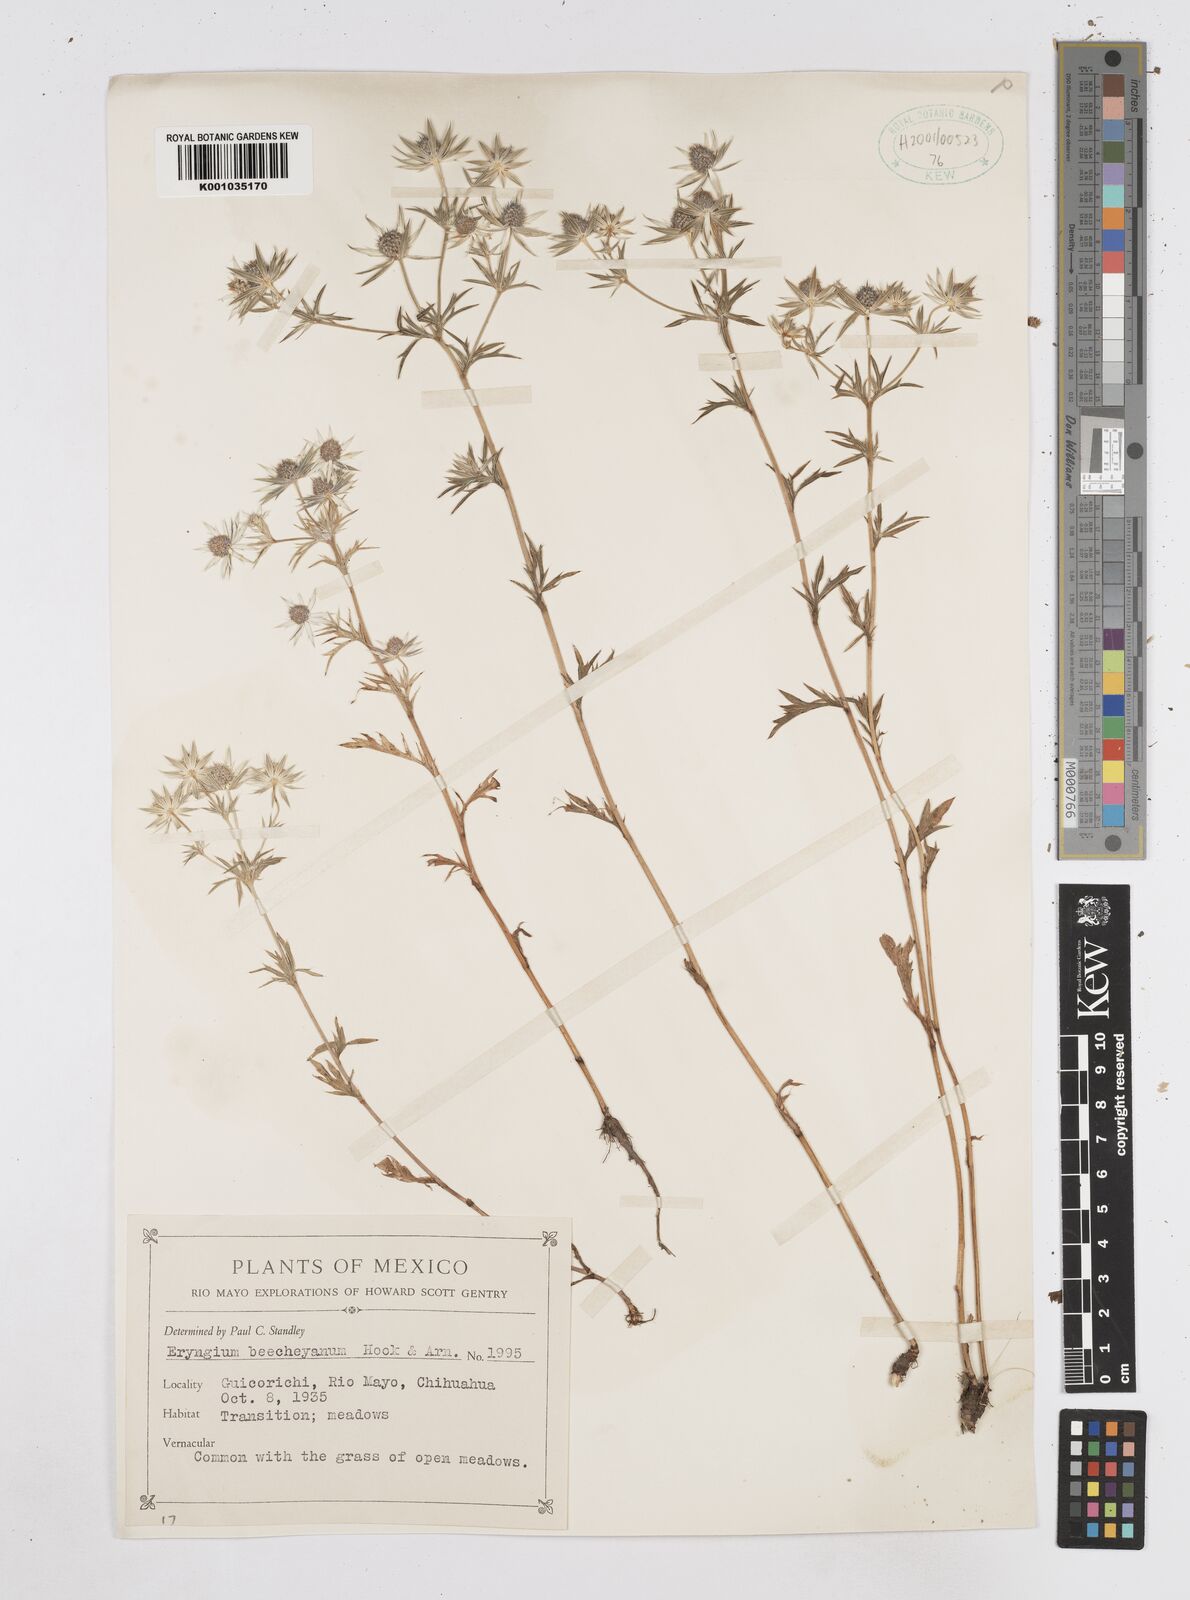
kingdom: Plantae
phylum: Tracheophyta
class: Magnoliopsida
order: Apiales
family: Apiaceae
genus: Eryngium
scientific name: Eryngium beecheyanum
